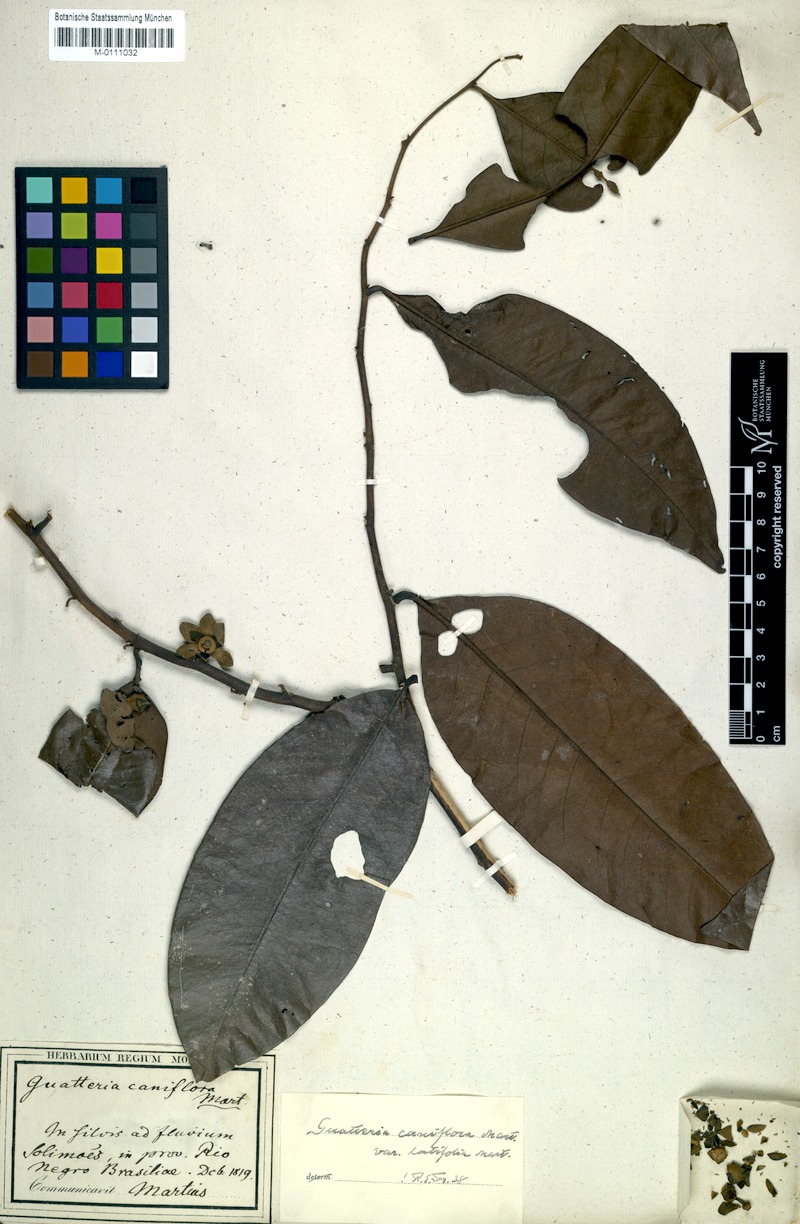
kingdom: Plantae
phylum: Tracheophyta
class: Magnoliopsida
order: Magnoliales
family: Annonaceae
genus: Guatteria
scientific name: Guatteria caniflora
